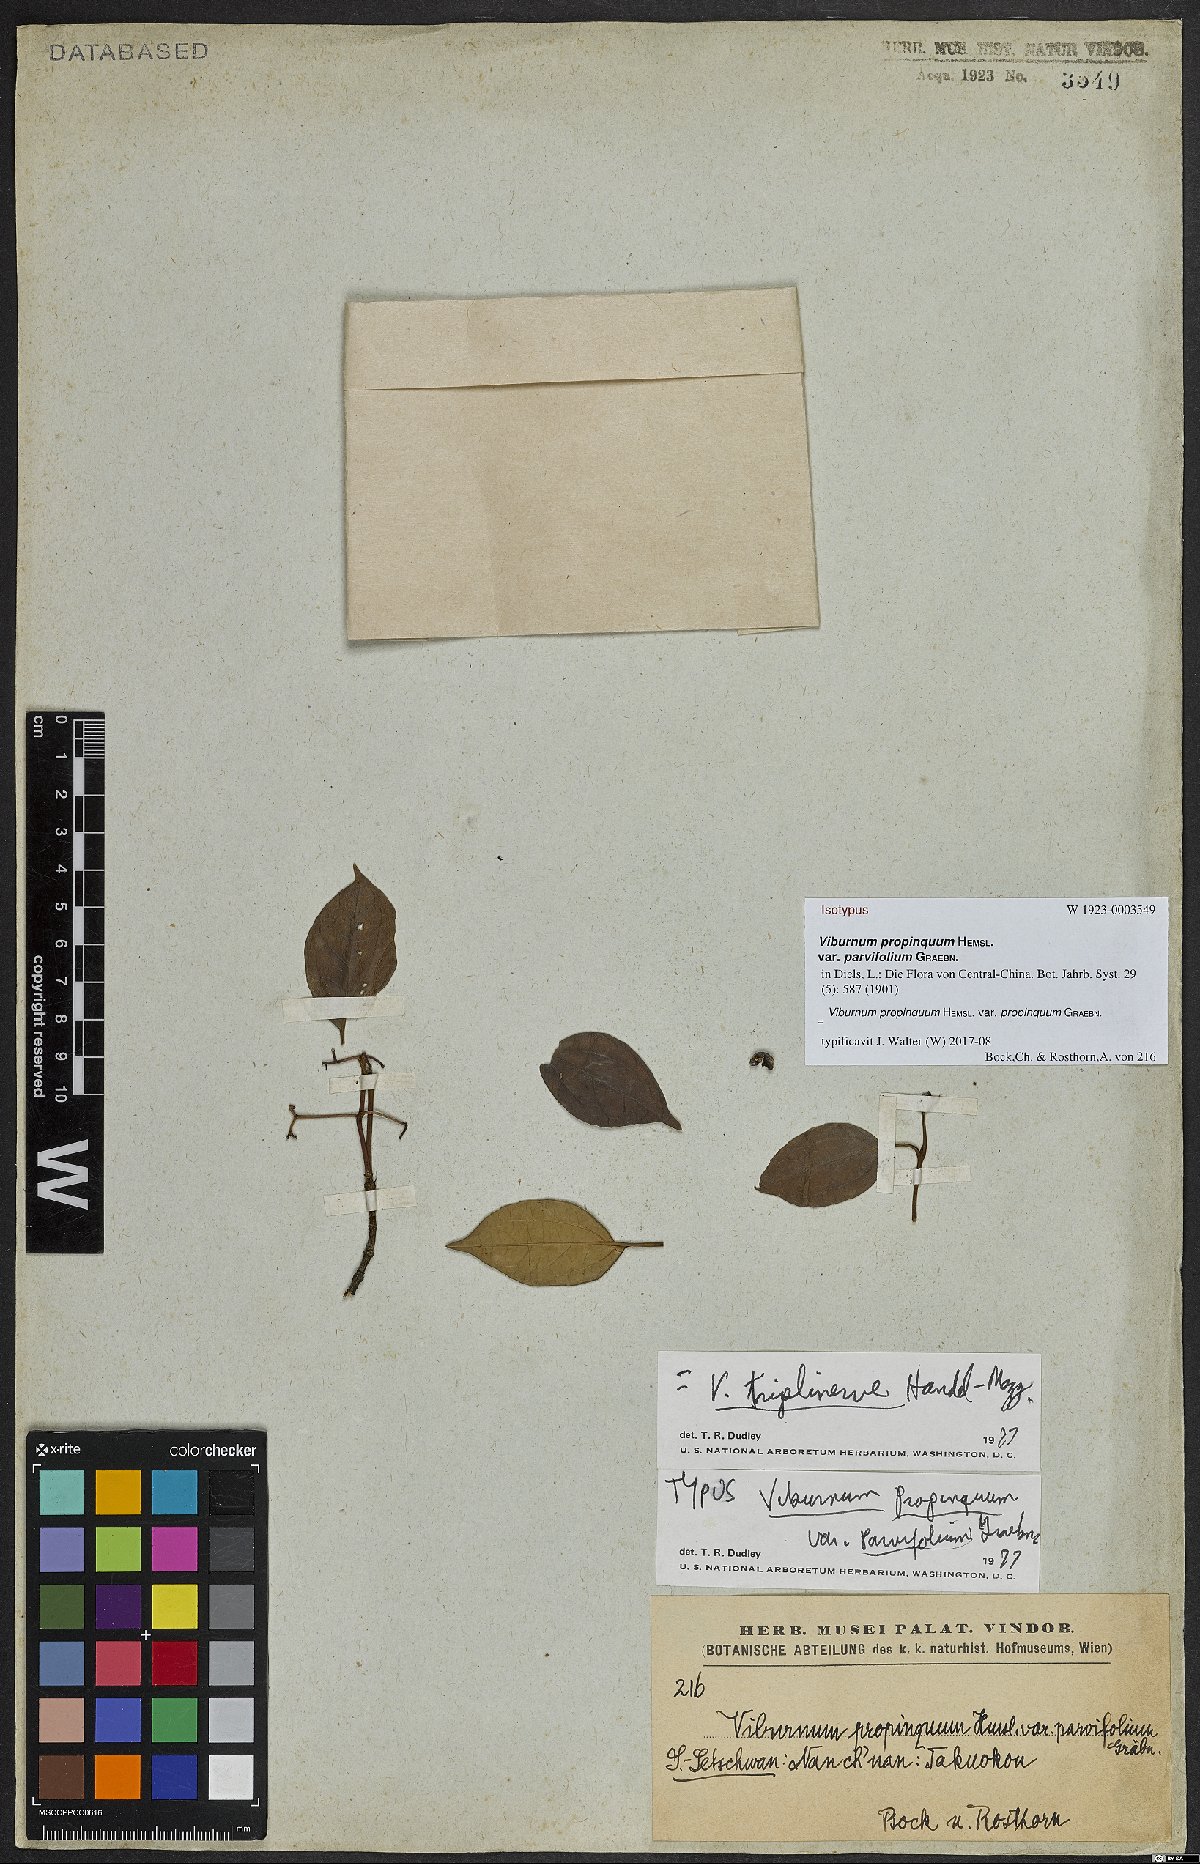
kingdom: Plantae
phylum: Tracheophyta
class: Magnoliopsida
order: Dipsacales
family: Viburnaceae
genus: Viburnum
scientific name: Viburnum propinquum
